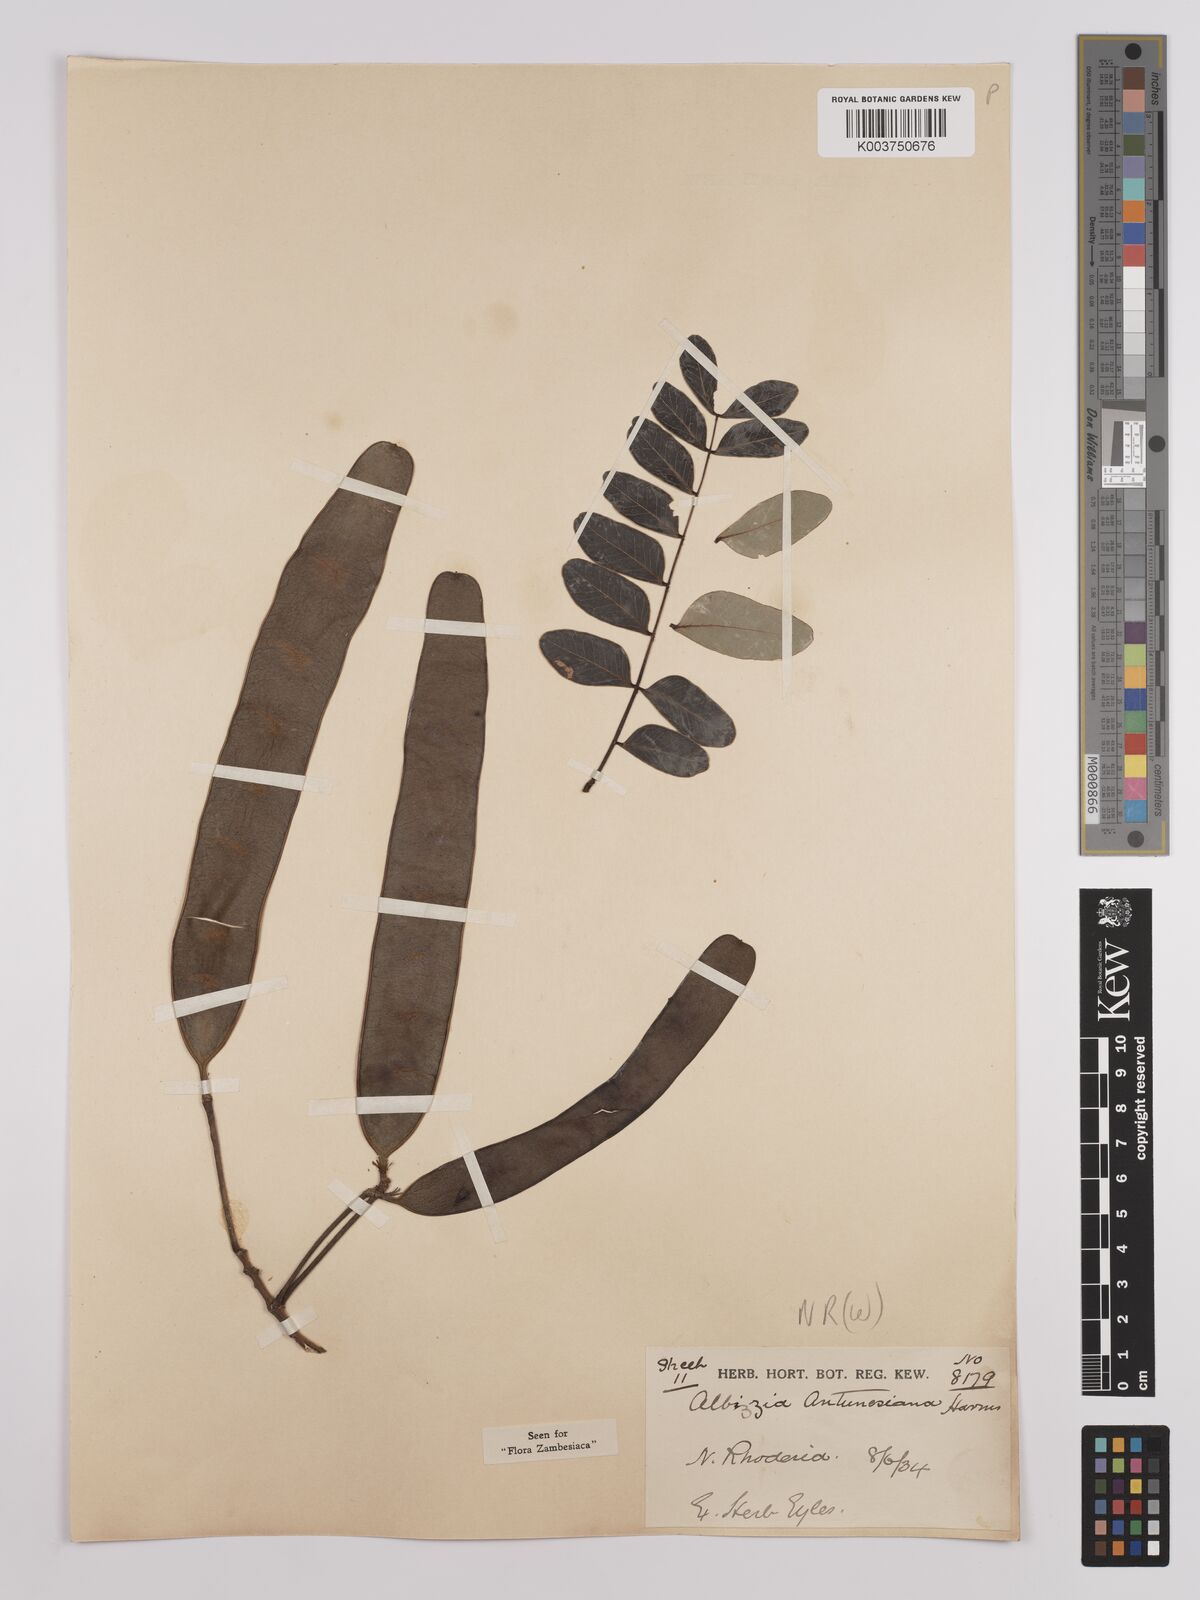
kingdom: Plantae
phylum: Tracheophyta
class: Magnoliopsida
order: Fabales
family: Fabaceae
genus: Albizia
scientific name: Albizia antunesiana
